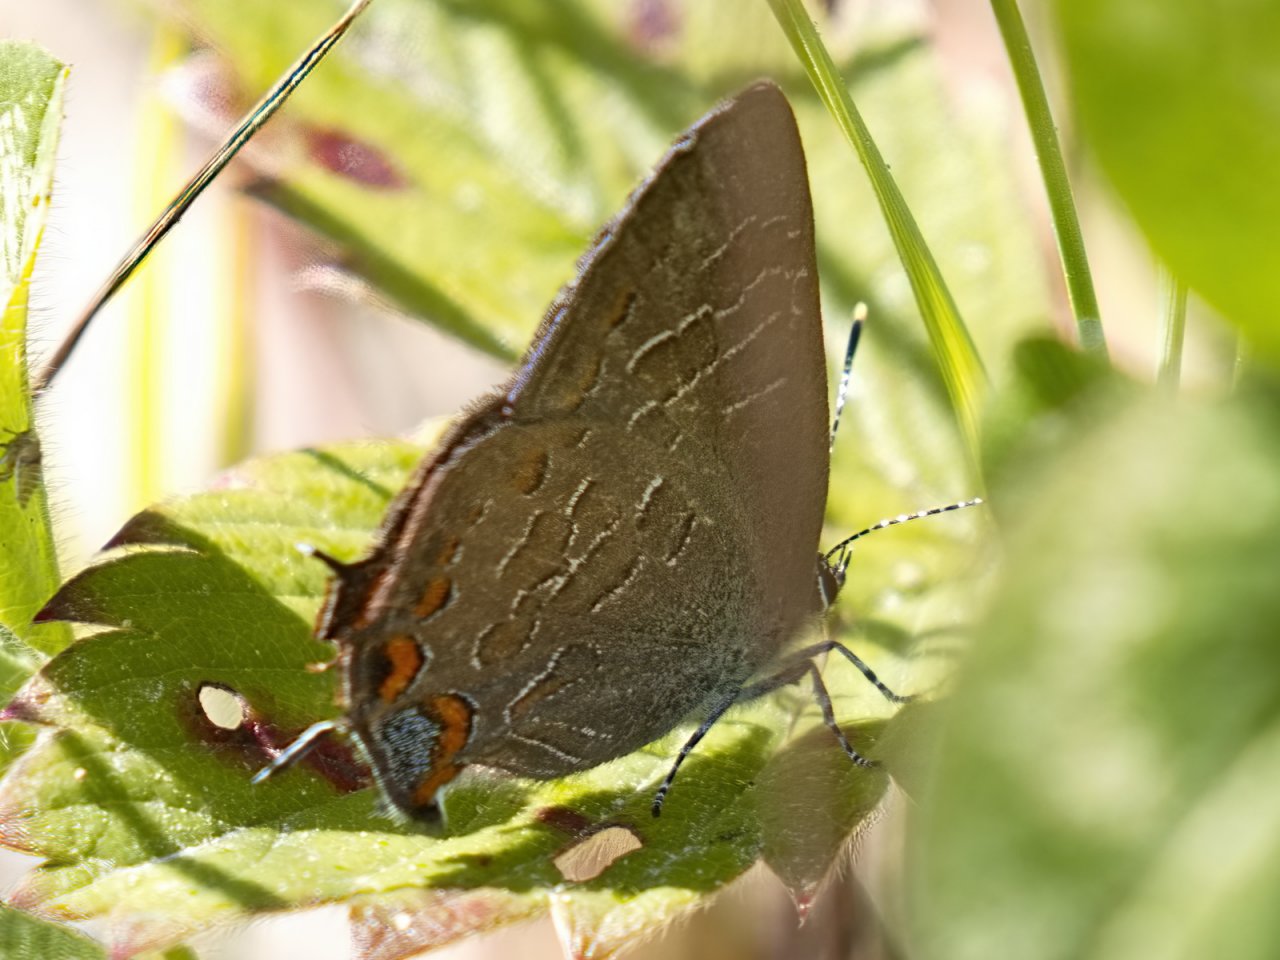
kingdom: Animalia
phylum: Arthropoda
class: Insecta
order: Lepidoptera
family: Lycaenidae
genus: Satyrium
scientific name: Satyrium liparops
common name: Striped Hairstreak
